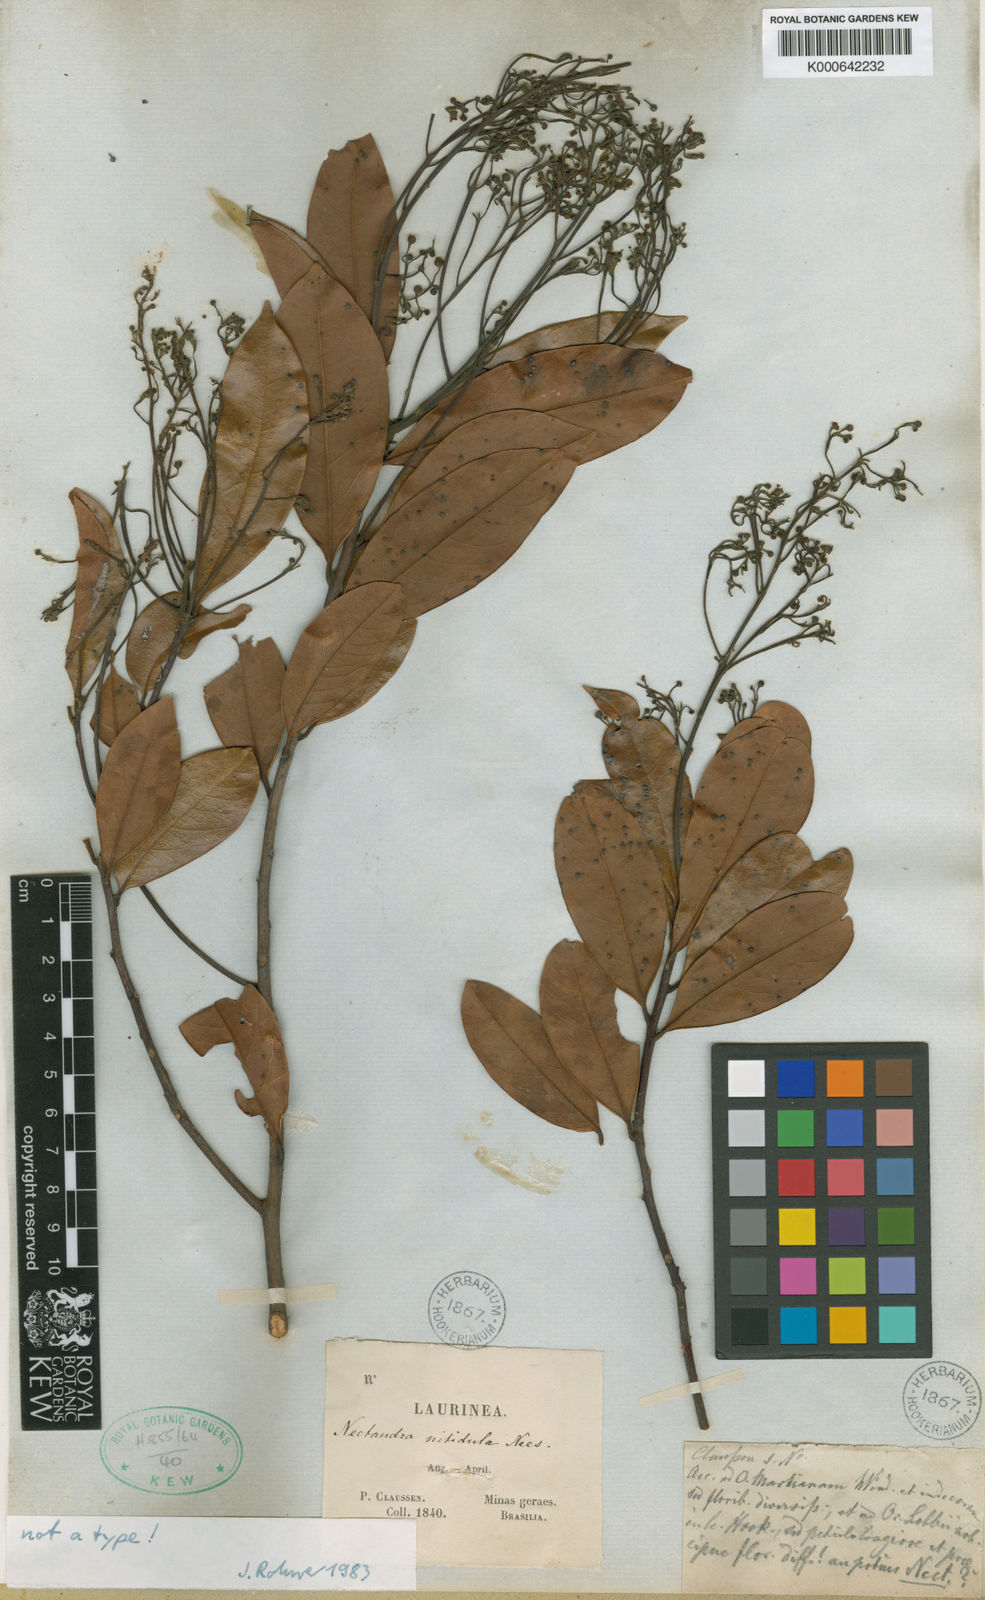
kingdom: Plantae
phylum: Tracheophyta
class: Magnoliopsida
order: Laurales
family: Lauraceae
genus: Nectandra
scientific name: Nectandra nitidula
